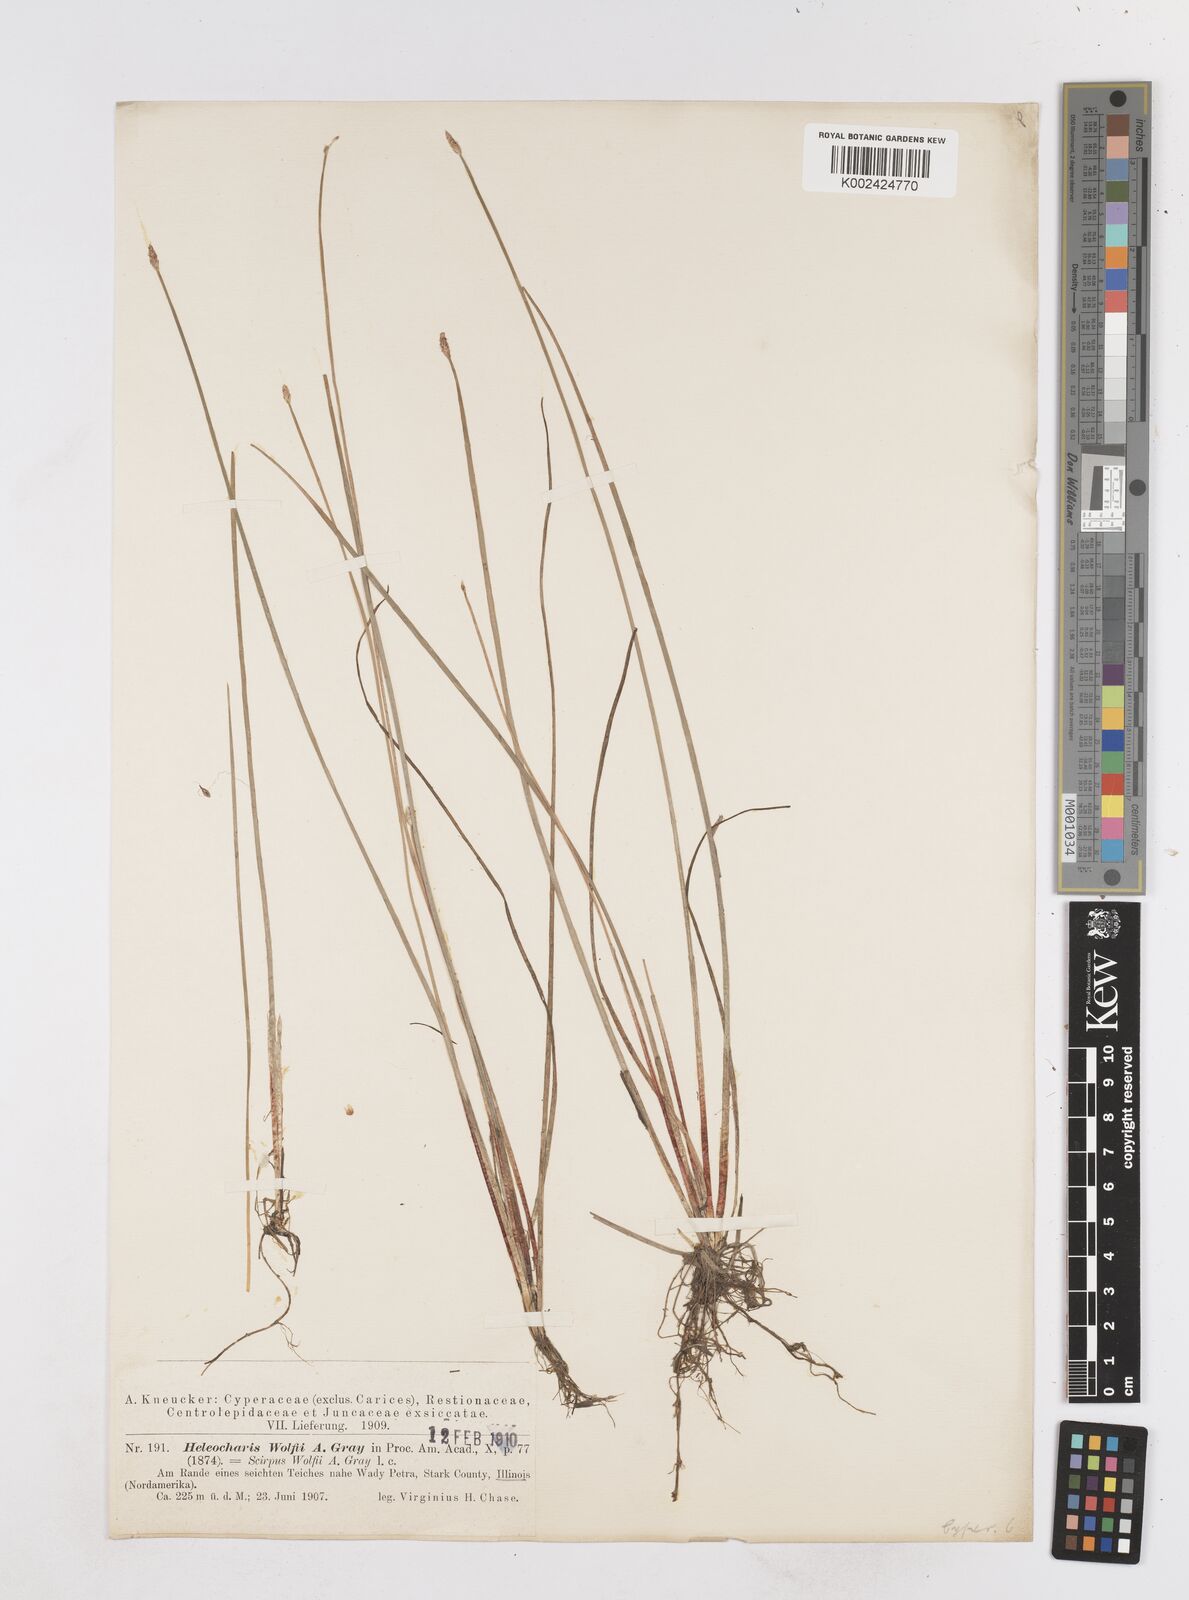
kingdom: Plantae
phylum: Tracheophyta
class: Liliopsida
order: Poales
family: Cyperaceae
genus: Eleocharis
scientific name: Eleocharis wolfii
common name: Wolf's spikerush
